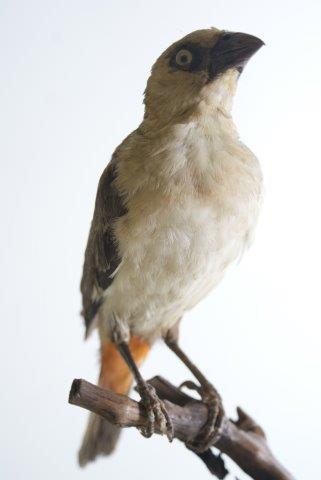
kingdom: Animalia
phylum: Chordata
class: Aves
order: Passeriformes
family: Ploceidae
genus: Dinemellia
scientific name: Dinemellia dinemelli
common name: White-headed buffalo weaver
